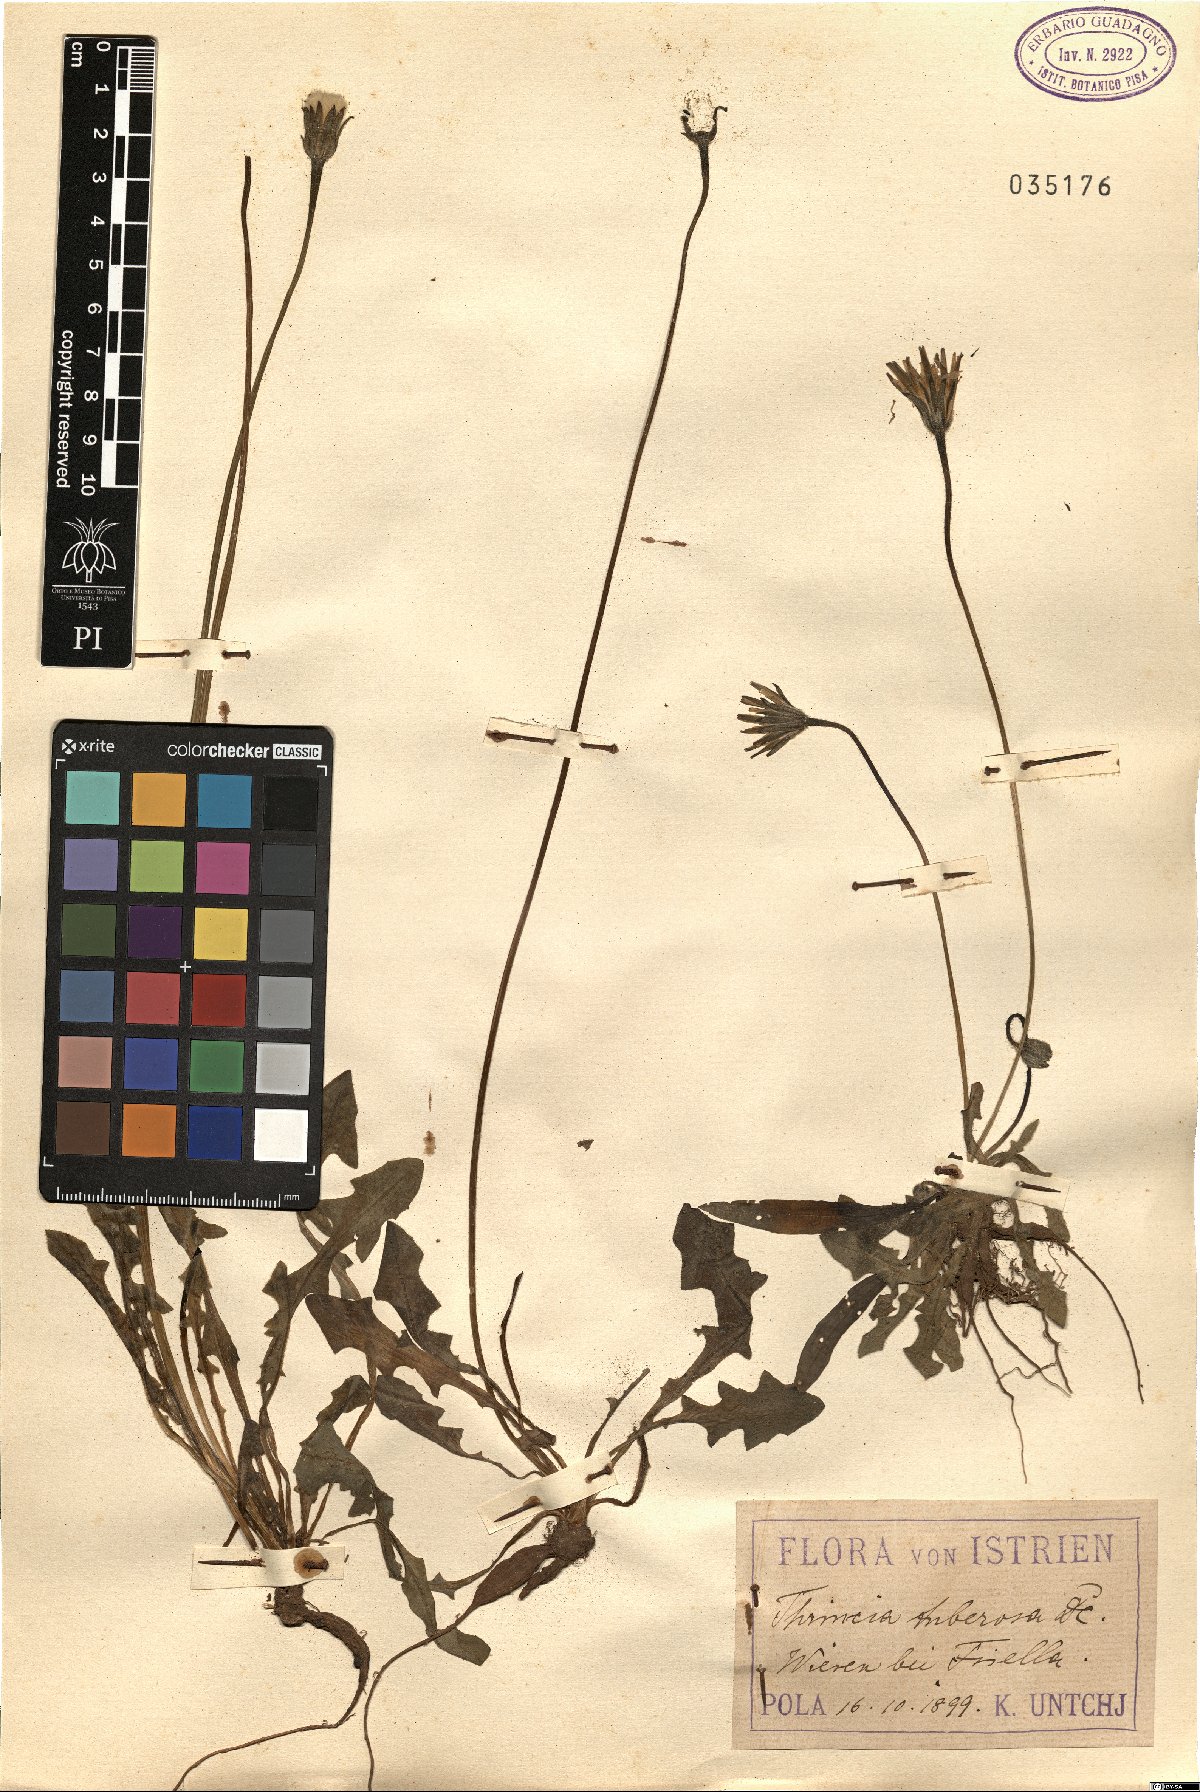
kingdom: Plantae
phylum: Tracheophyta
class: Magnoliopsida
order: Asterales
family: Asteraceae
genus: Thrincia
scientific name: Thrincia tuberosa
